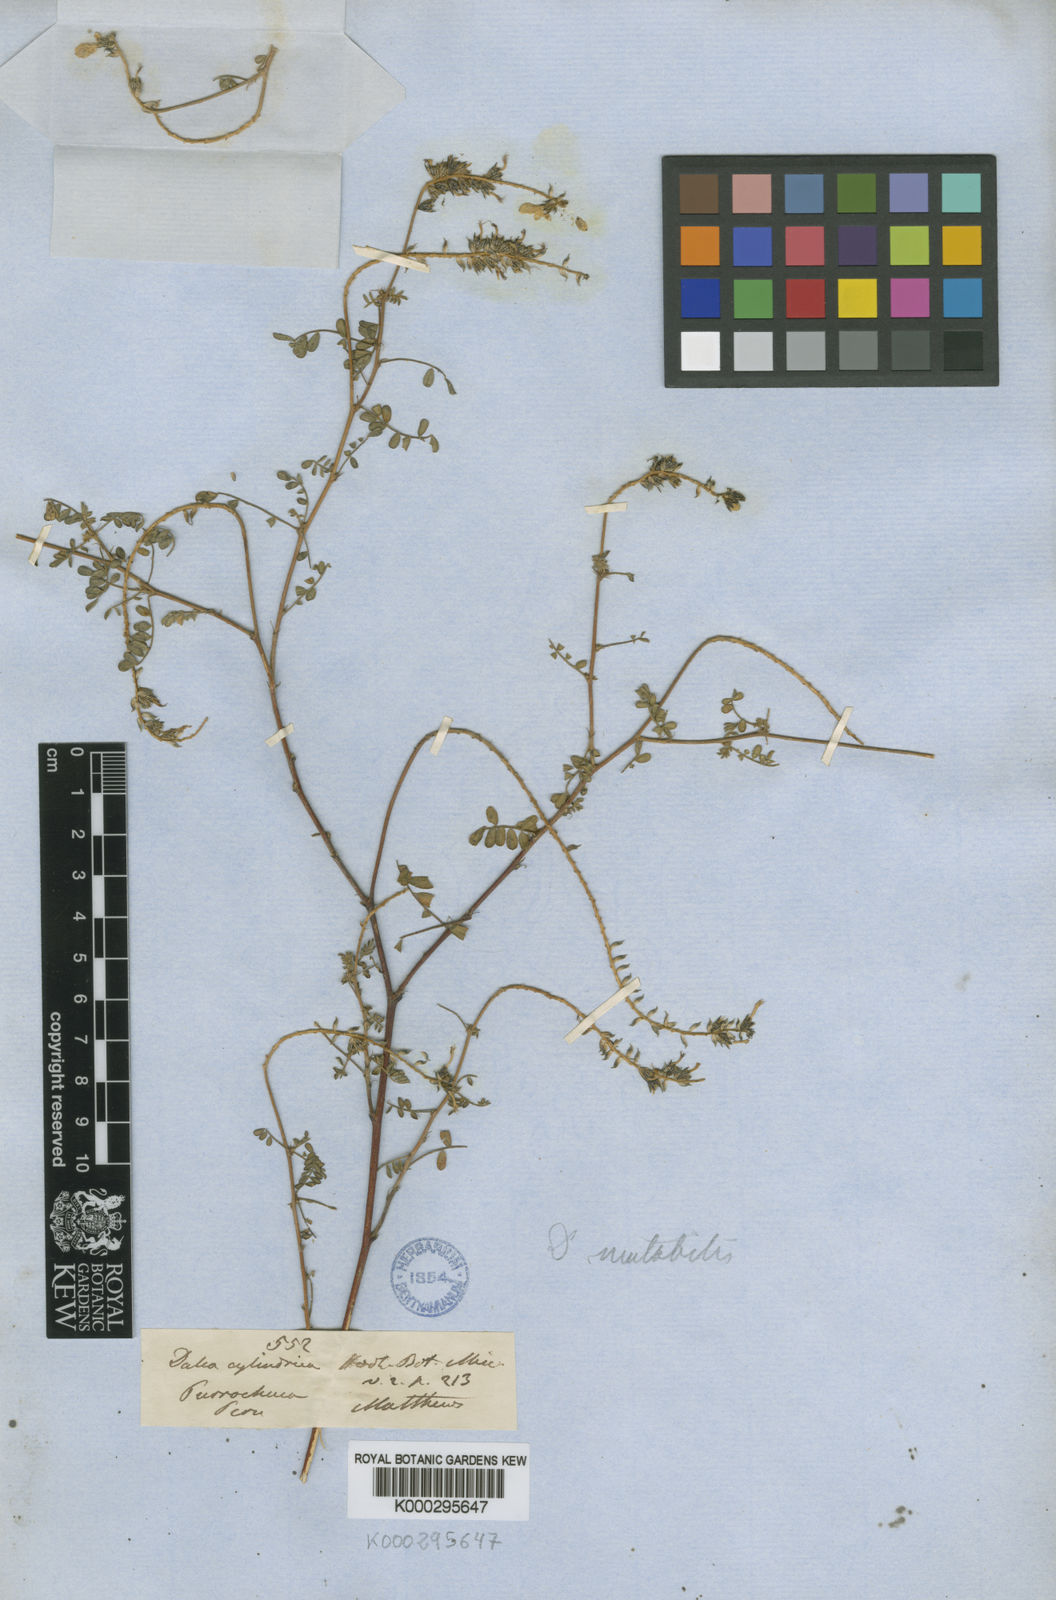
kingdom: Plantae
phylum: Tracheophyta
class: Magnoliopsida
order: Fabales
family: Fabaceae
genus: Dalea
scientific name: Dalea cylindrica
